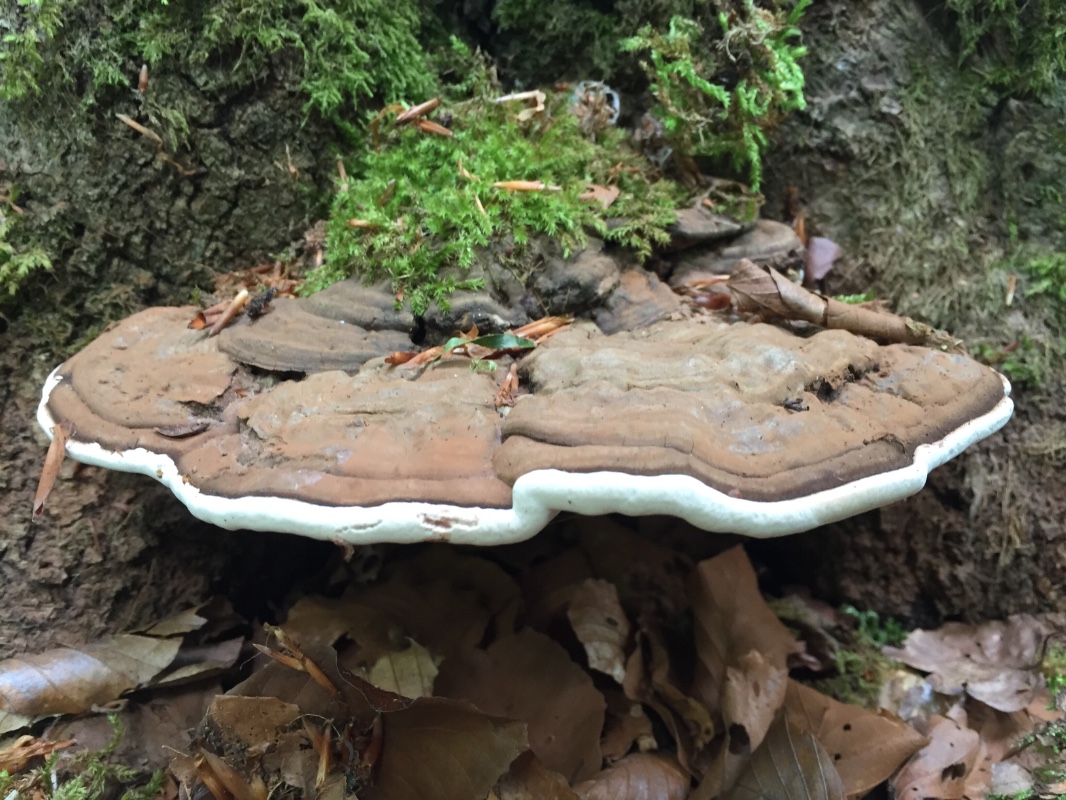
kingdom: Fungi
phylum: Basidiomycota
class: Agaricomycetes
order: Polyporales
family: Polyporaceae
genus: Ganoderma
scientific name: Ganoderma applanatum
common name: flad lakporesvamp
